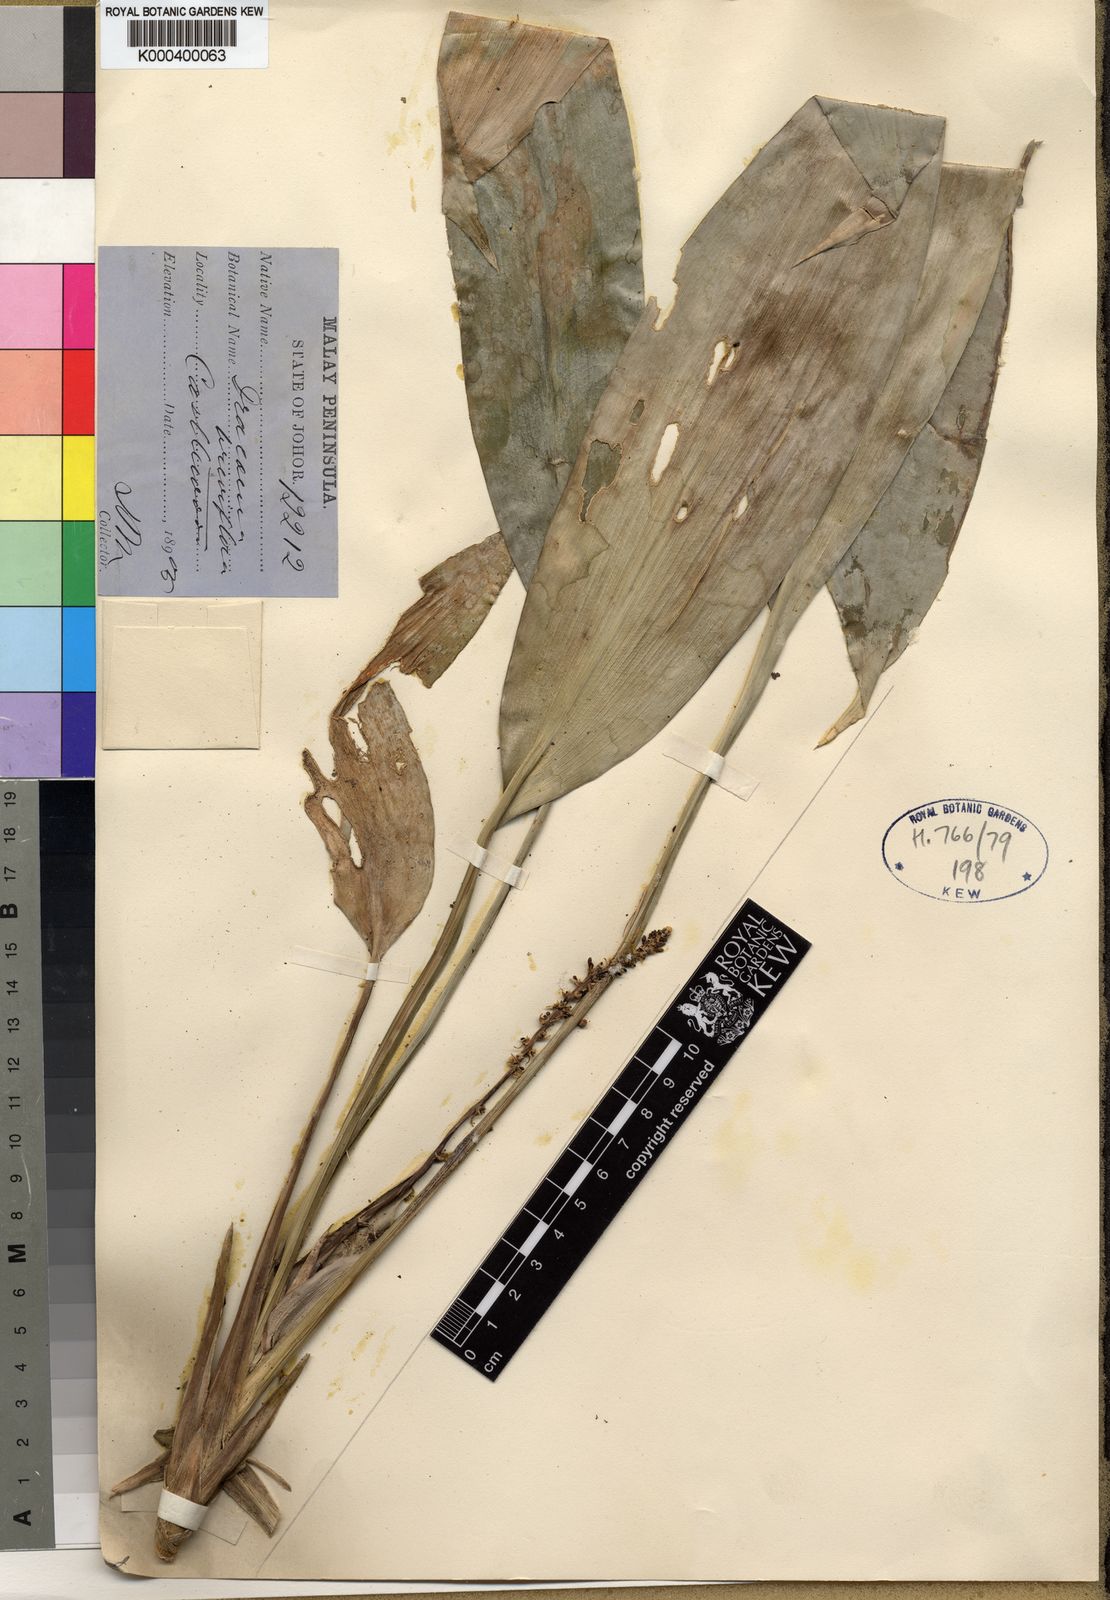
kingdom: Plantae
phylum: Tracheophyta
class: Liliopsida
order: Asparagales
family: Asparagaceae
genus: Dracaena
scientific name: Dracaena breviflora
